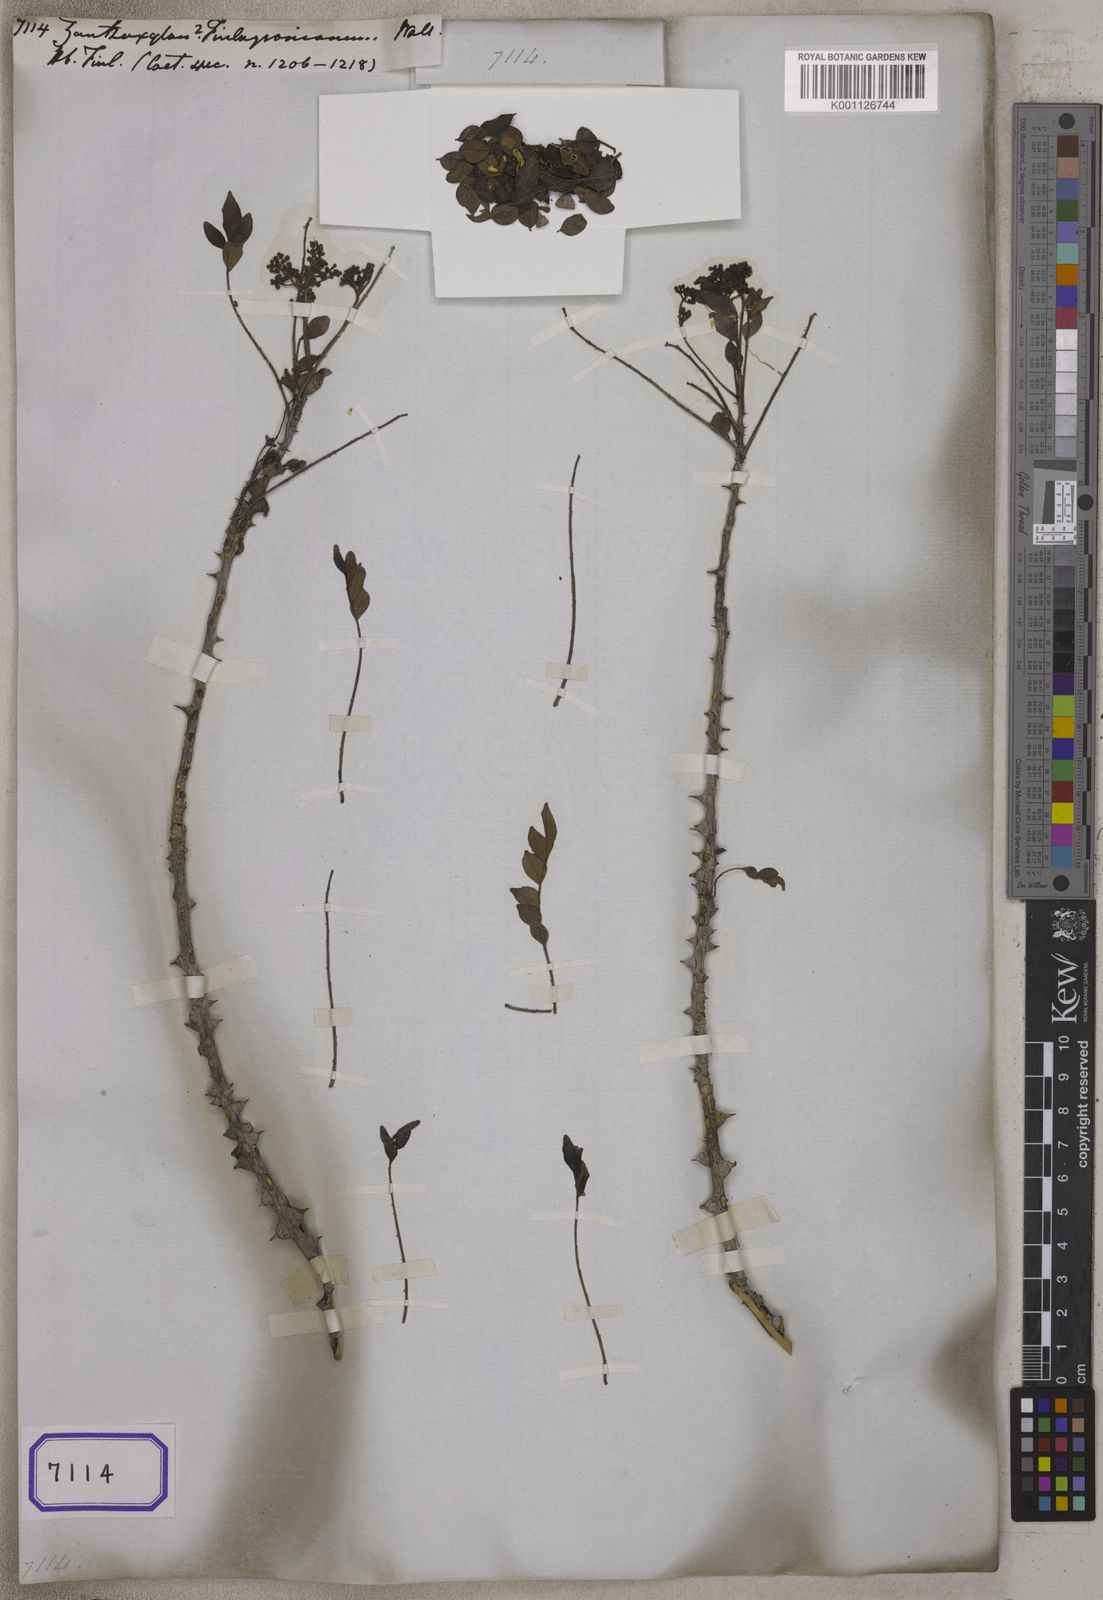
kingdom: Plantae
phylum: Tracheophyta
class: Magnoliopsida
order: Sapindales
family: Rutaceae
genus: Zanthoxylum
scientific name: Zanthoxylum finlaysonianum
